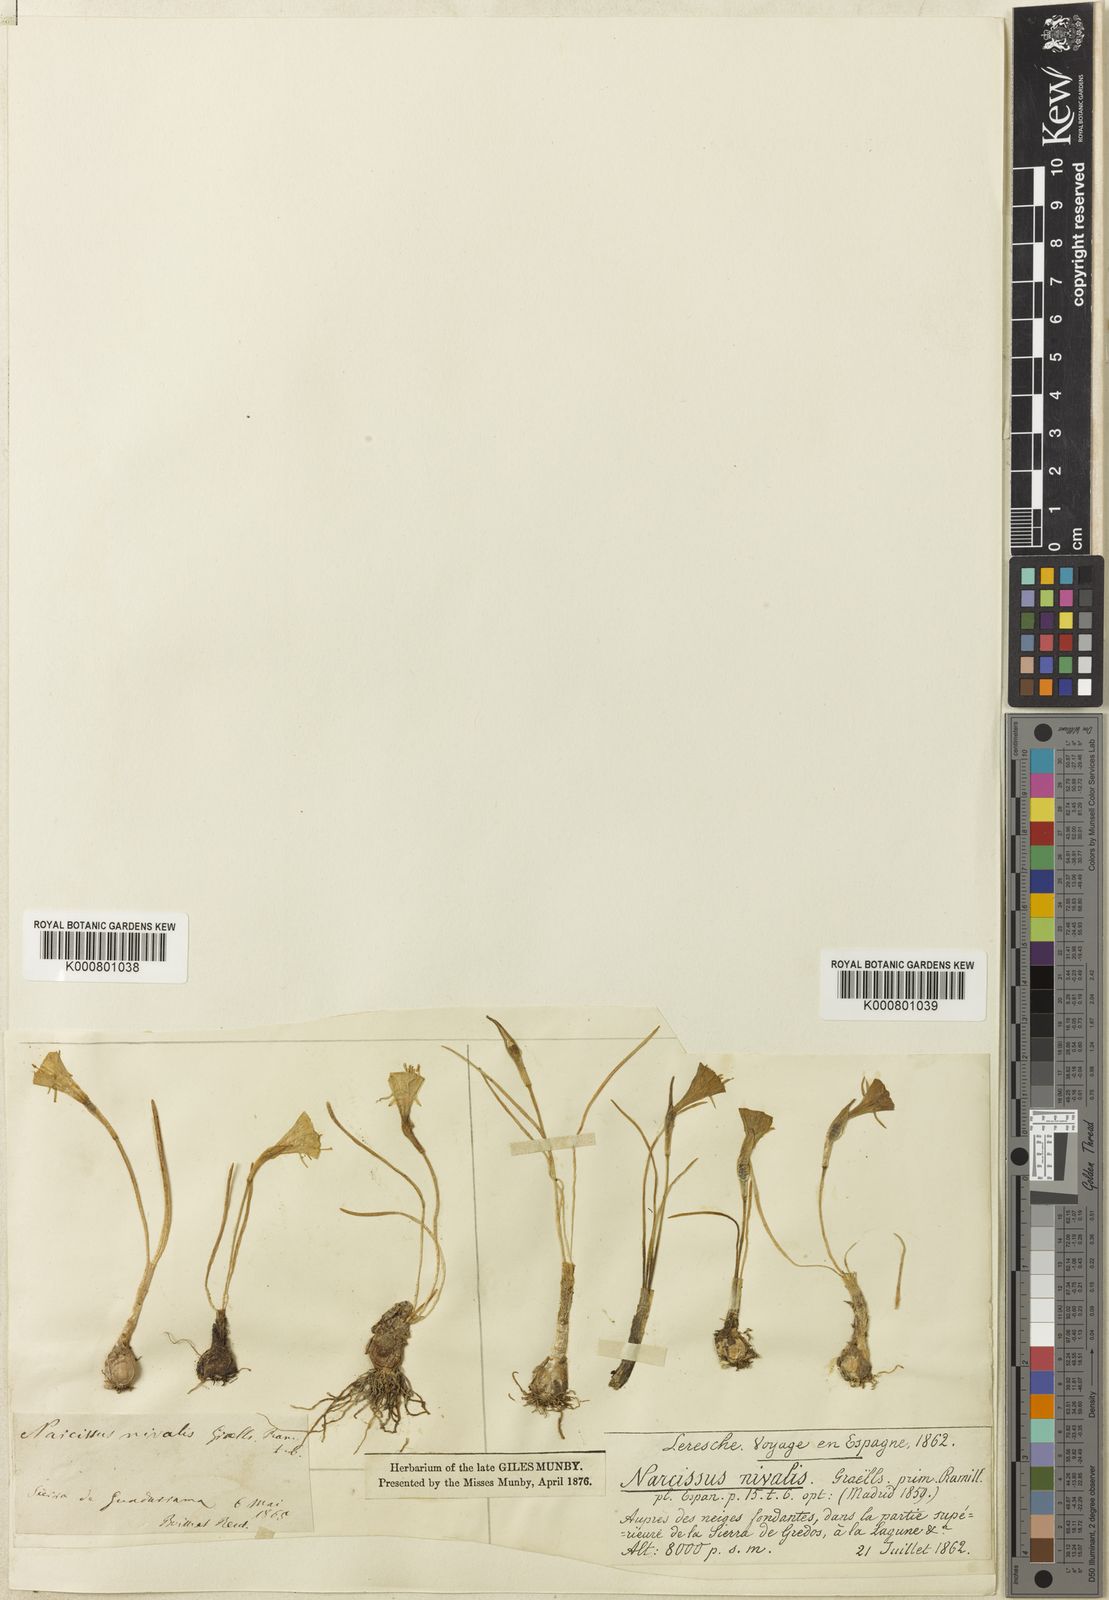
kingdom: Plantae
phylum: Tracheophyta
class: Liliopsida
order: Asparagales
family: Amaryllidaceae
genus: Narcissus
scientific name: Narcissus bulbocodium
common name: Hoop-petticoat daffodil
